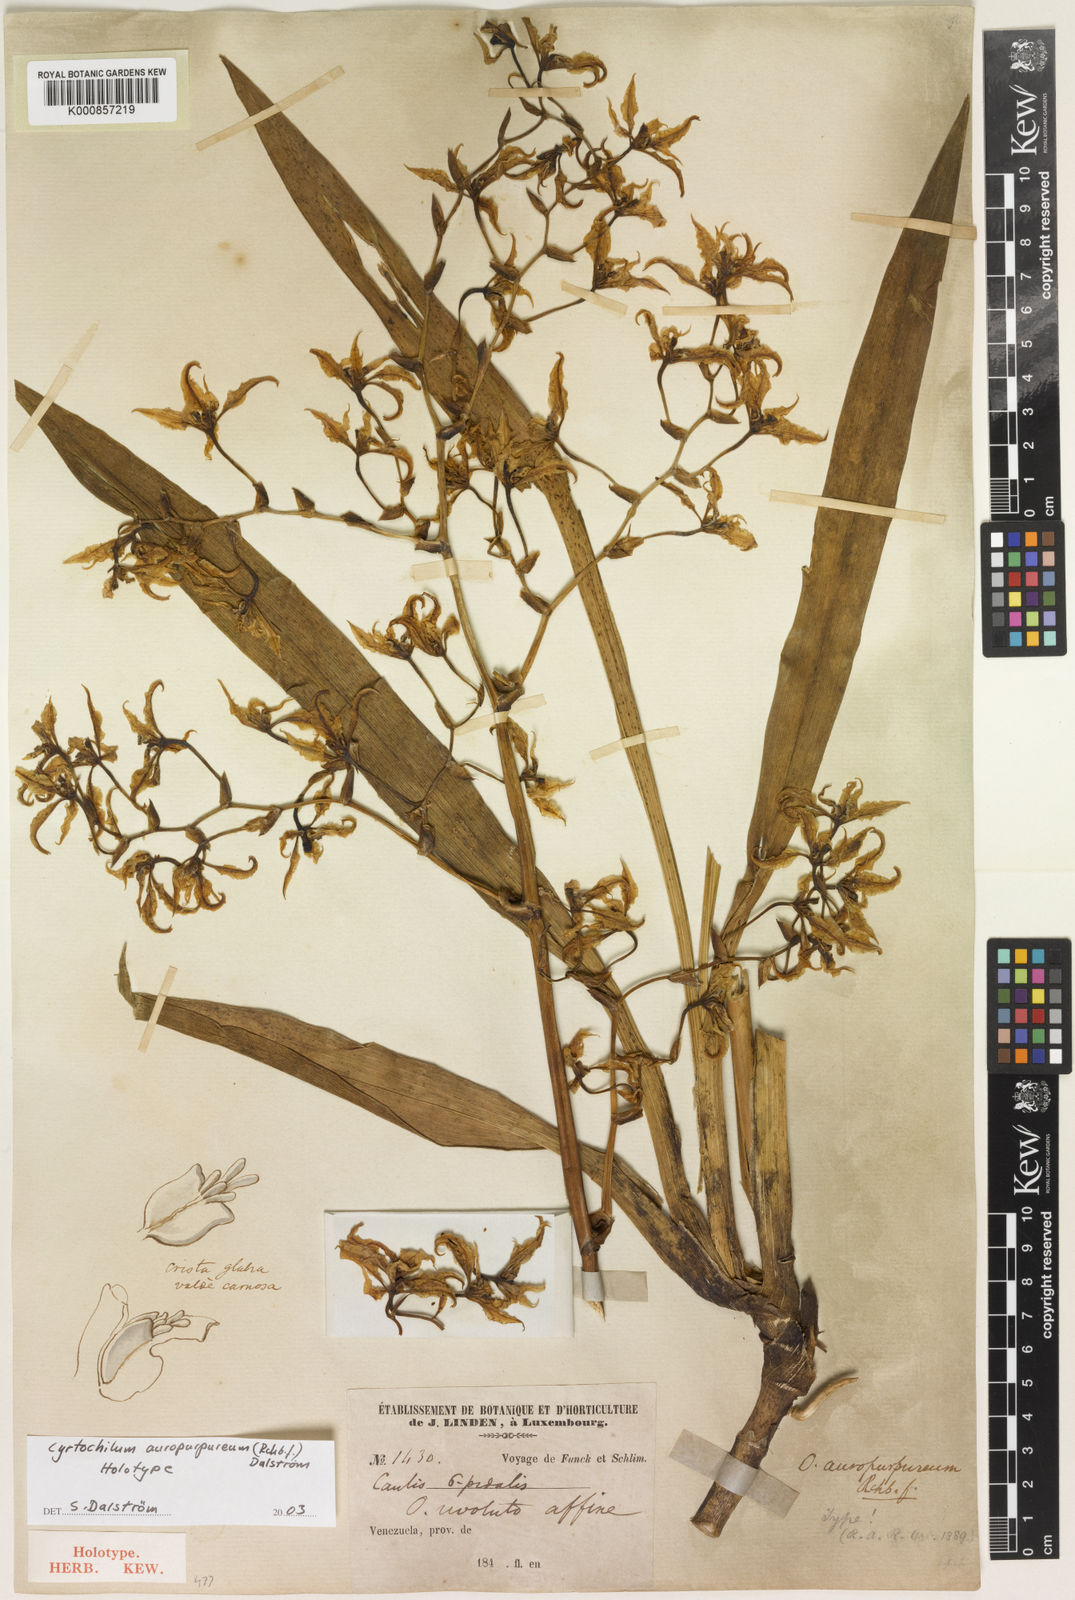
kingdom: Plantae
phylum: Tracheophyta
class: Liliopsida
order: Asparagales
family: Orchidaceae
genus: Cyrtochilum
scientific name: Cyrtochilum
